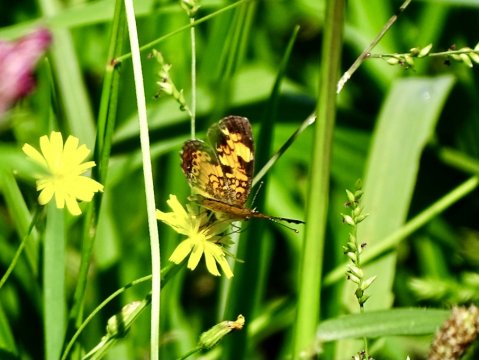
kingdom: Animalia
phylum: Arthropoda
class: Insecta
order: Lepidoptera
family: Nymphalidae
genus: Phyciodes
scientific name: Phyciodes tharos
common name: Pearl Crescent
